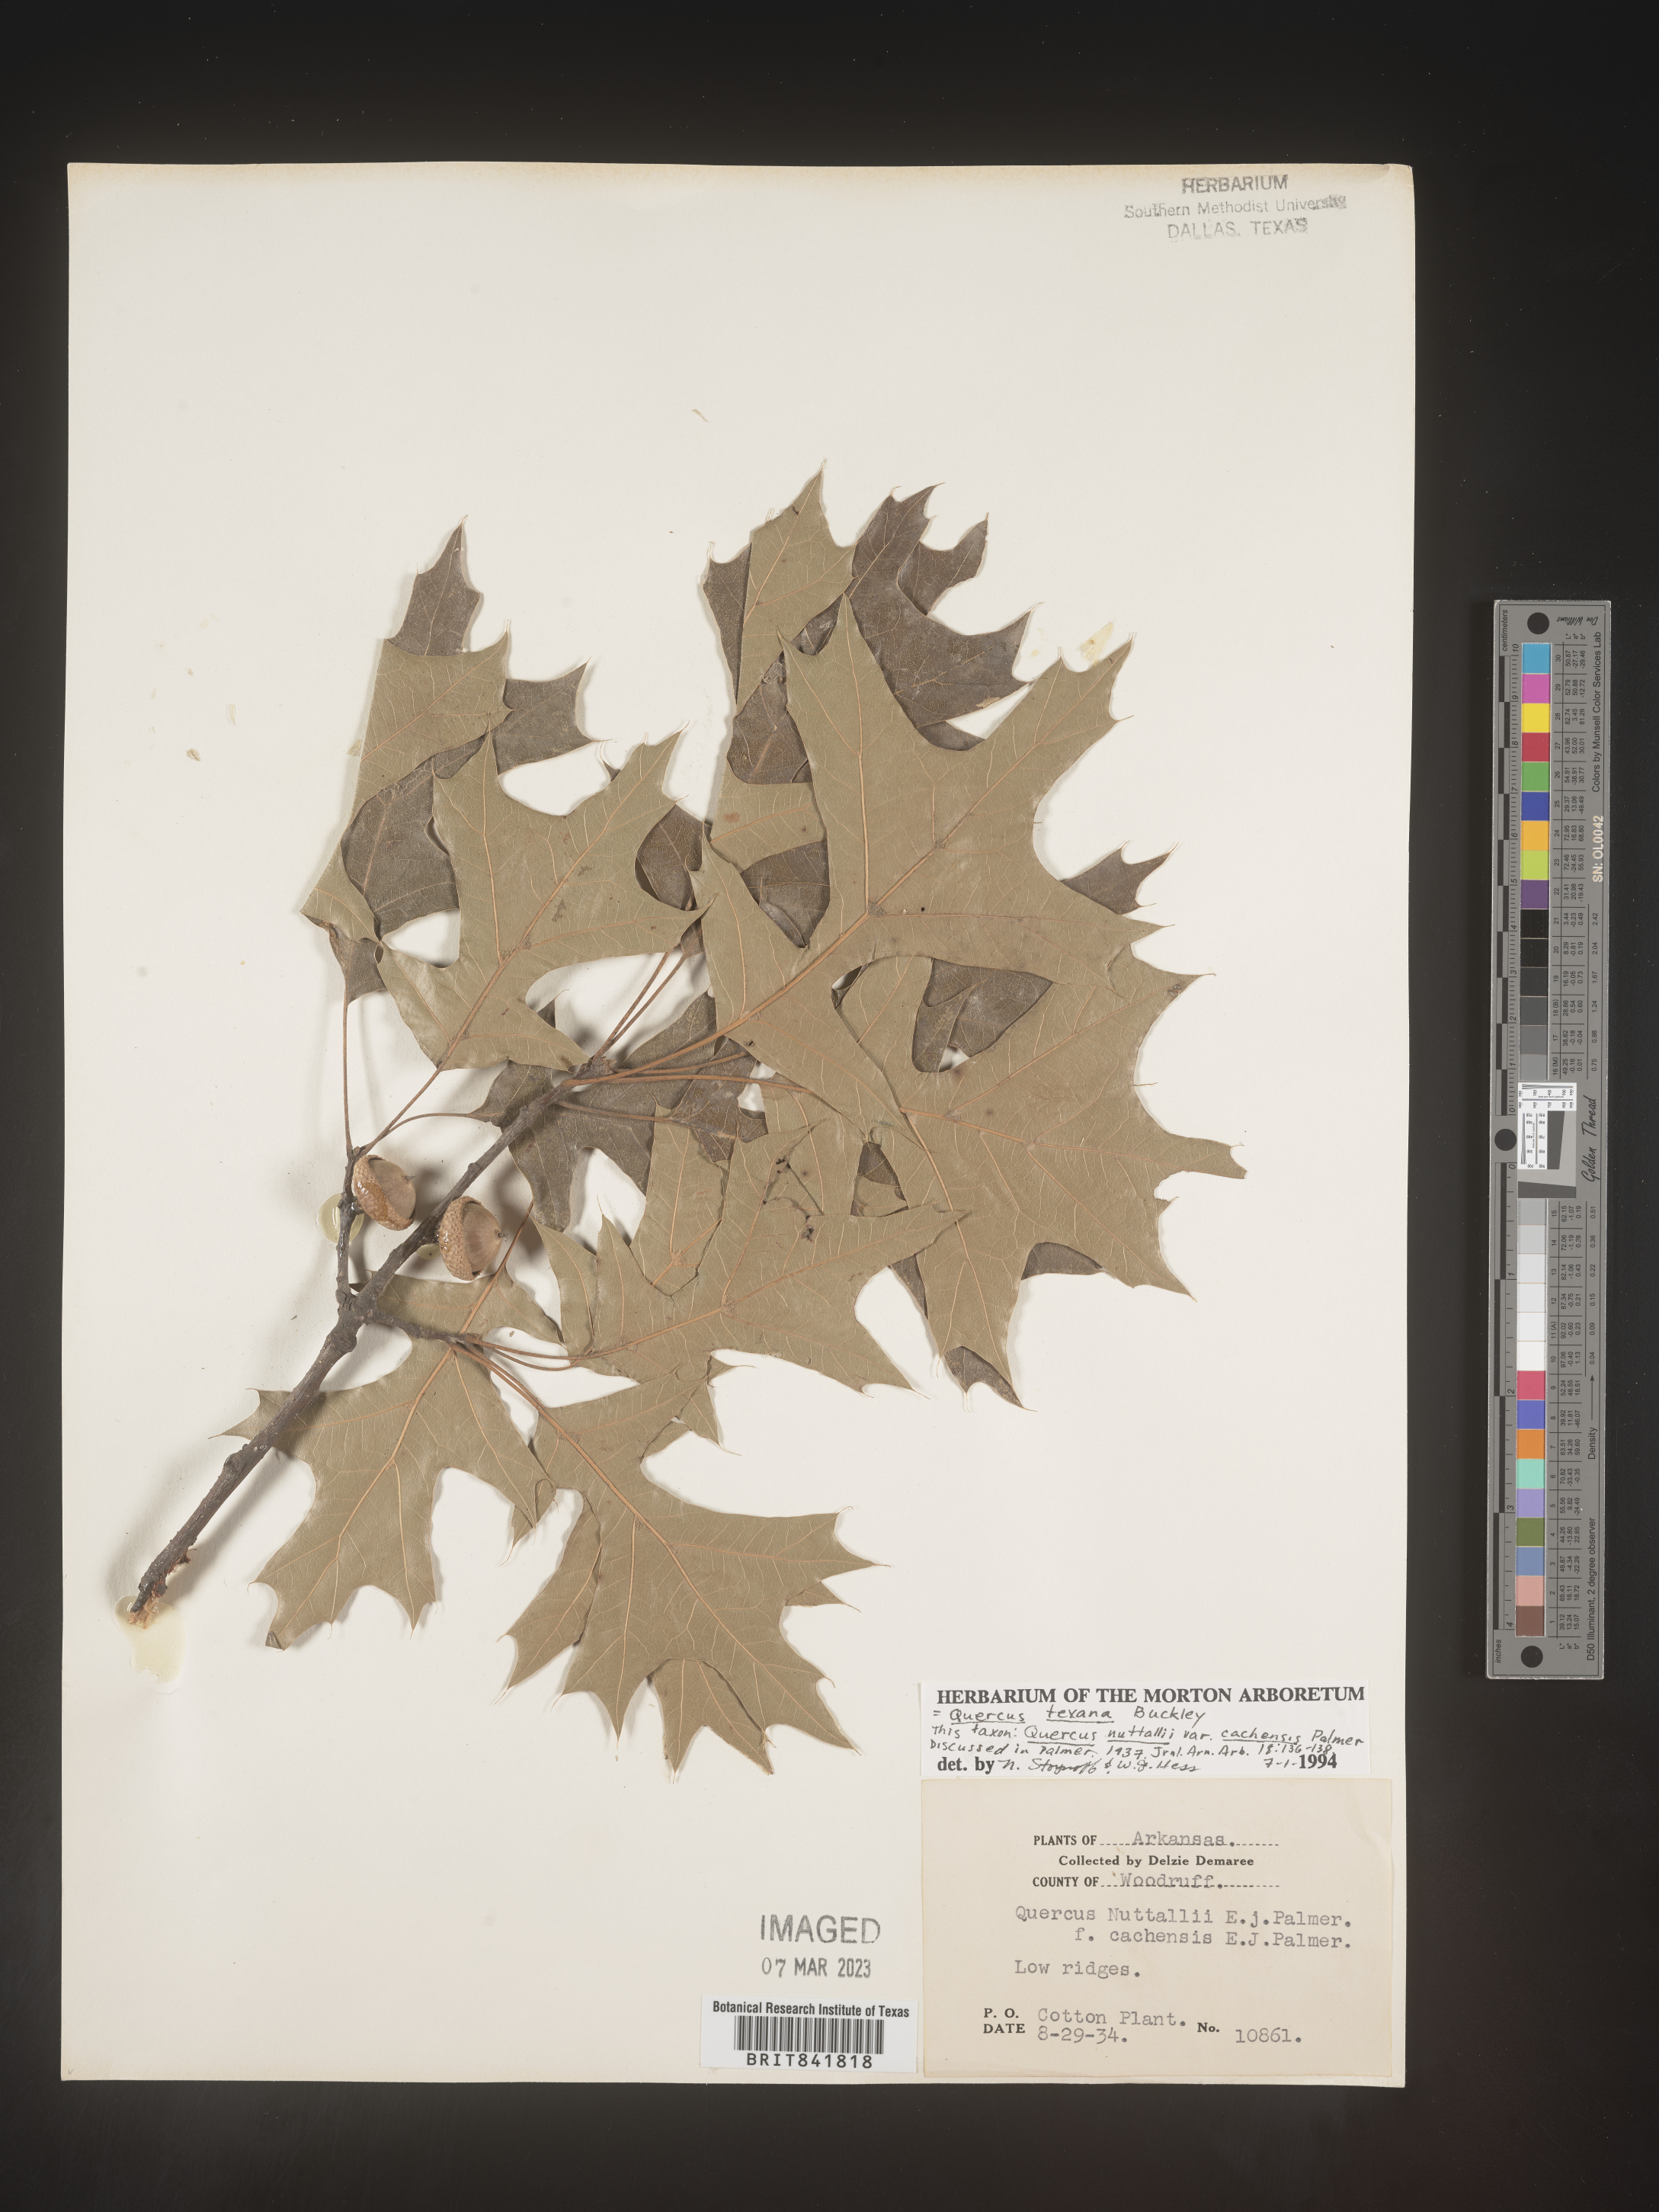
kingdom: Plantae
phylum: Tracheophyta
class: Magnoliopsida
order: Fagales
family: Fagaceae
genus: Quercus
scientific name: Quercus texana
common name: Nuttall oak
